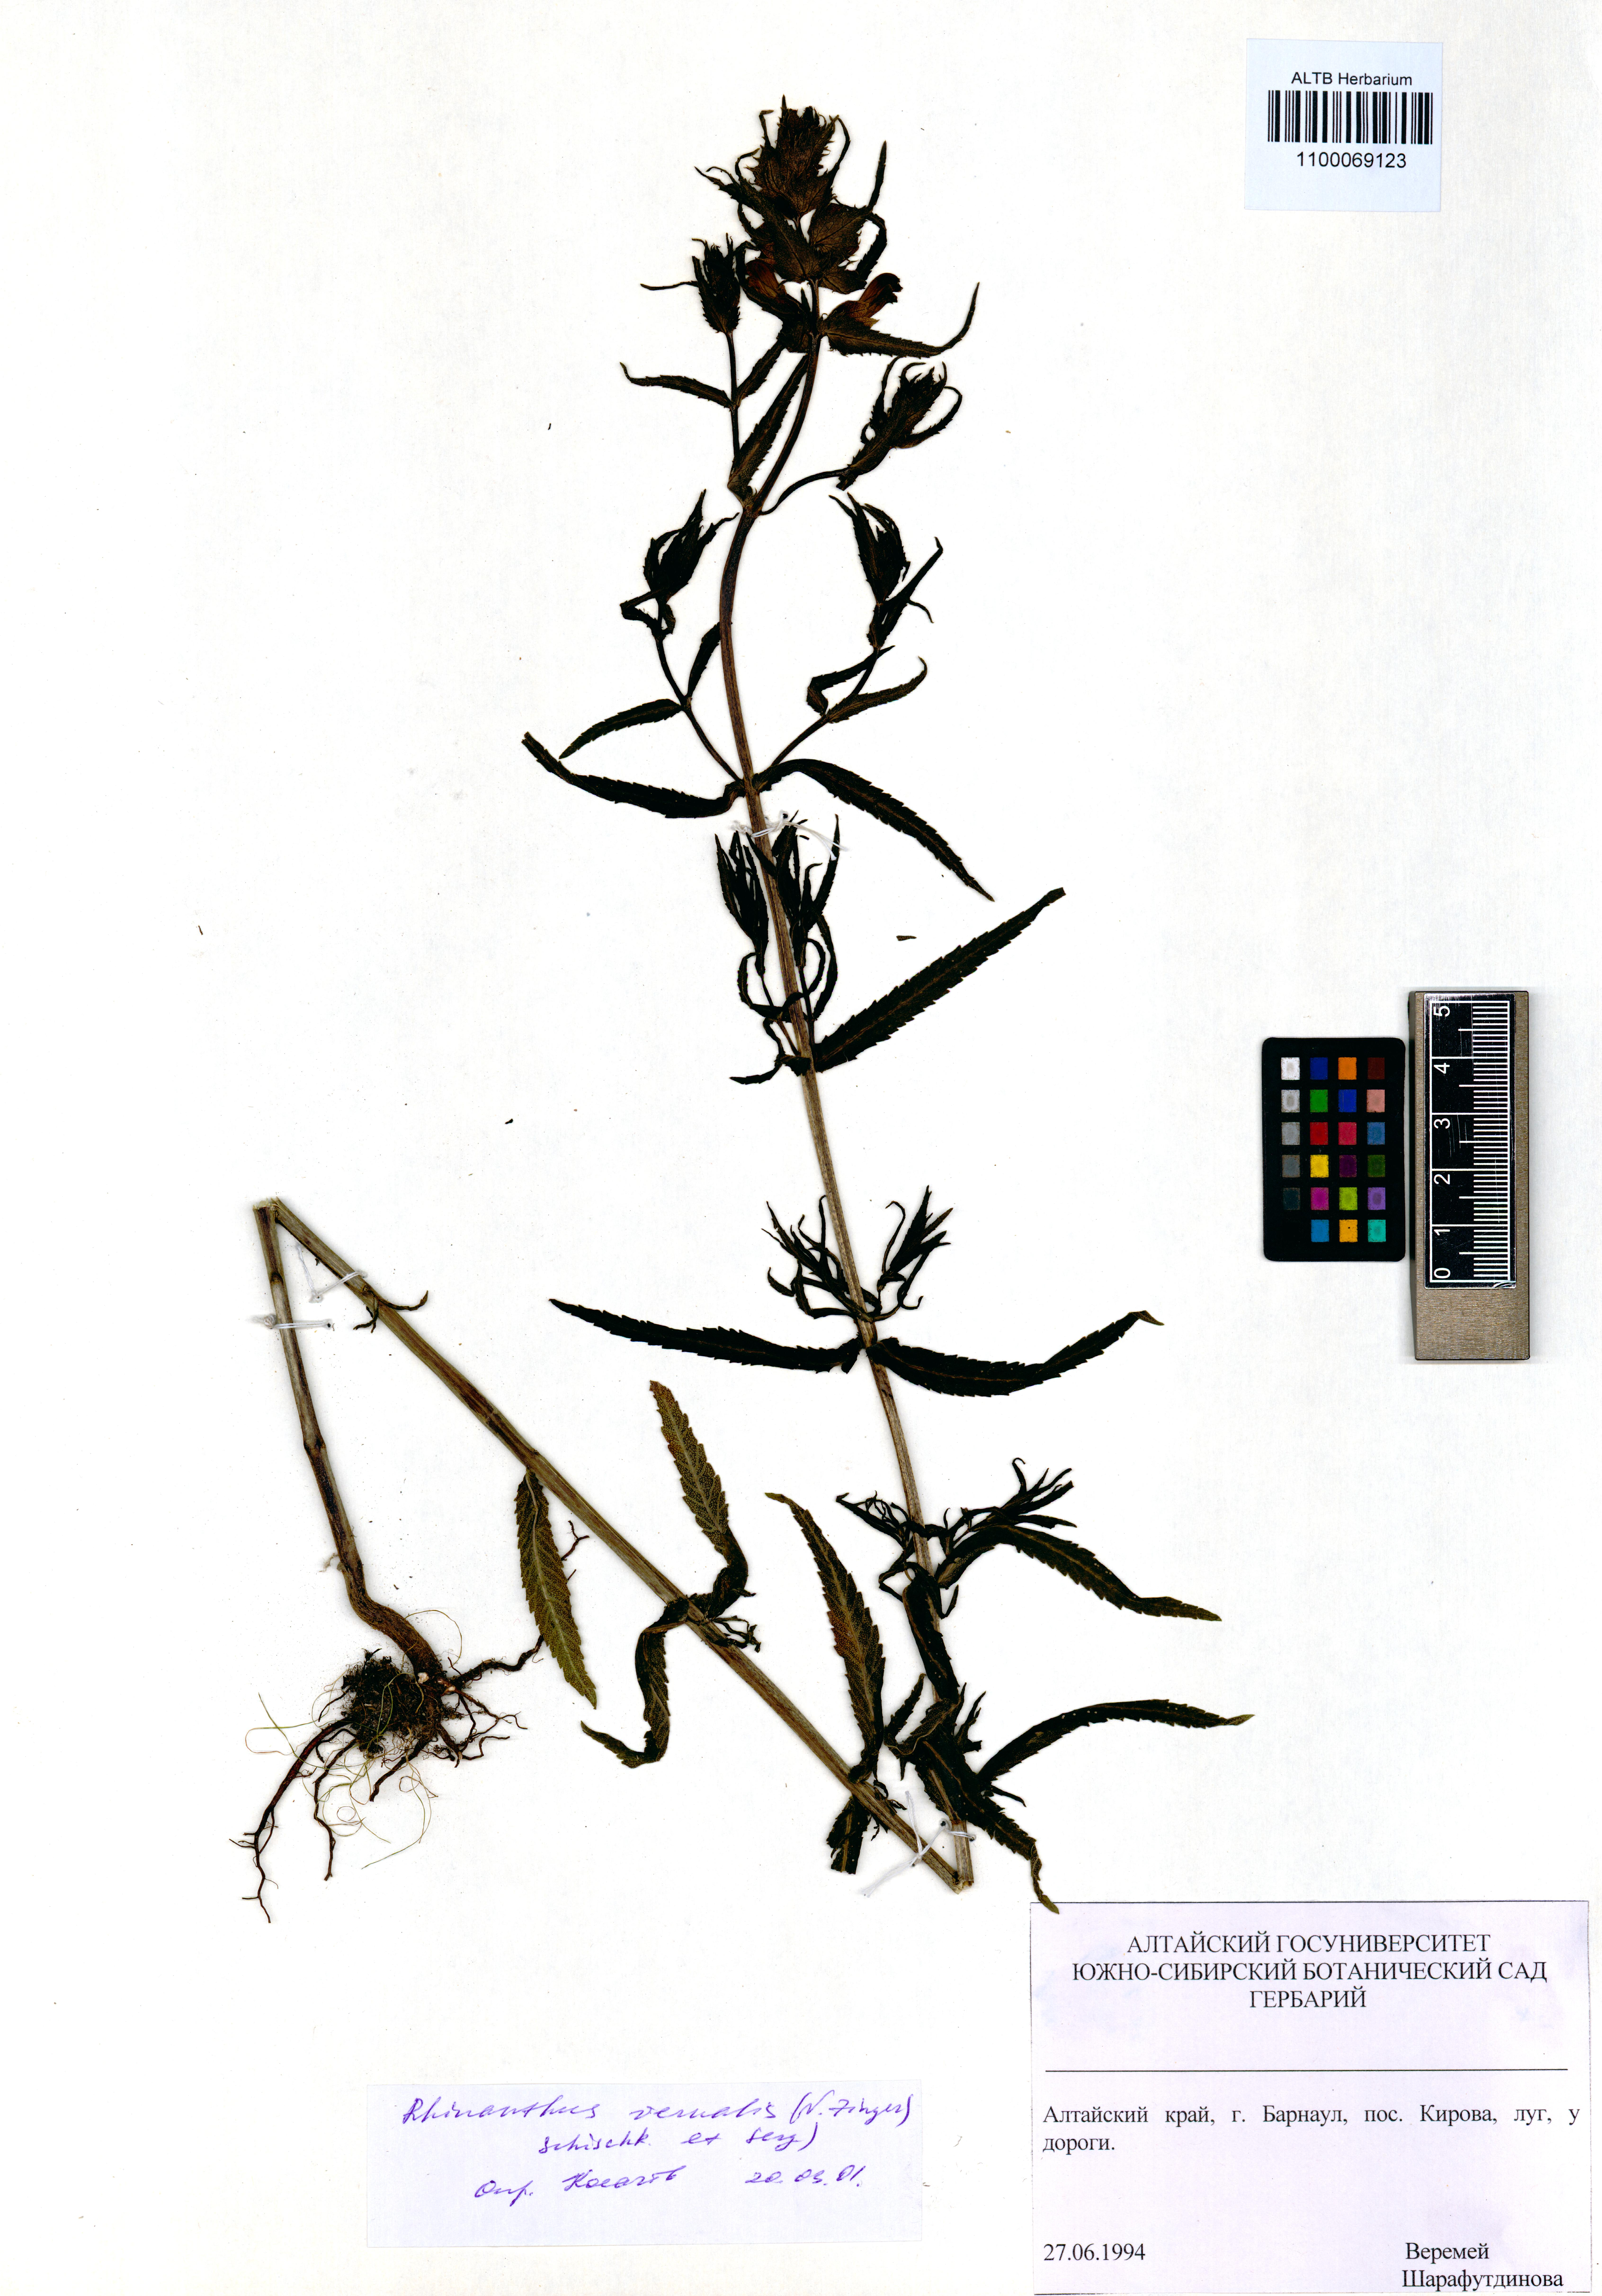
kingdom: Plantae
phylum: Tracheophyta
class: Magnoliopsida
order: Lamiales
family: Orobanchaceae
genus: Rhinanthus
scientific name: Rhinanthus serotinus
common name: Late-flowering yellow rattle
